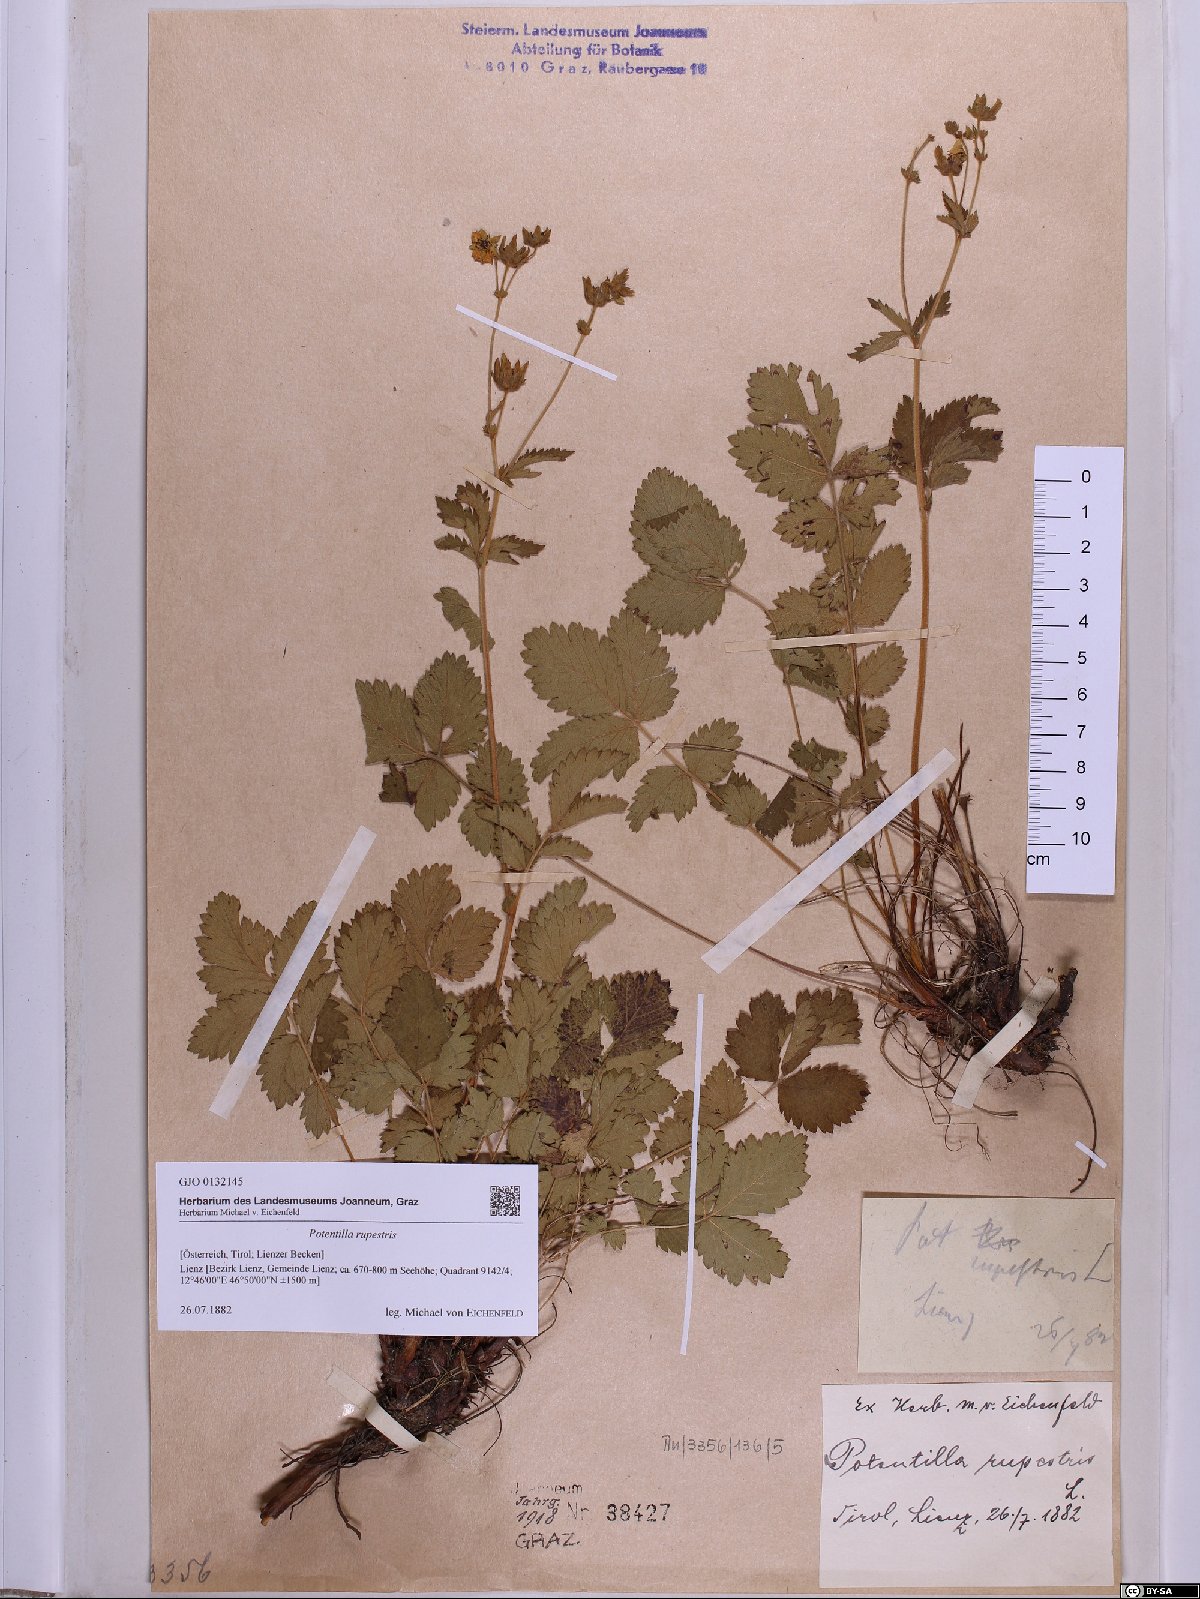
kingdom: Plantae
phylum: Tracheophyta
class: Magnoliopsida
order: Rosales
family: Rosaceae
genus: Drymocallis
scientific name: Drymocallis rupestris
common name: Rock cinquefoil
